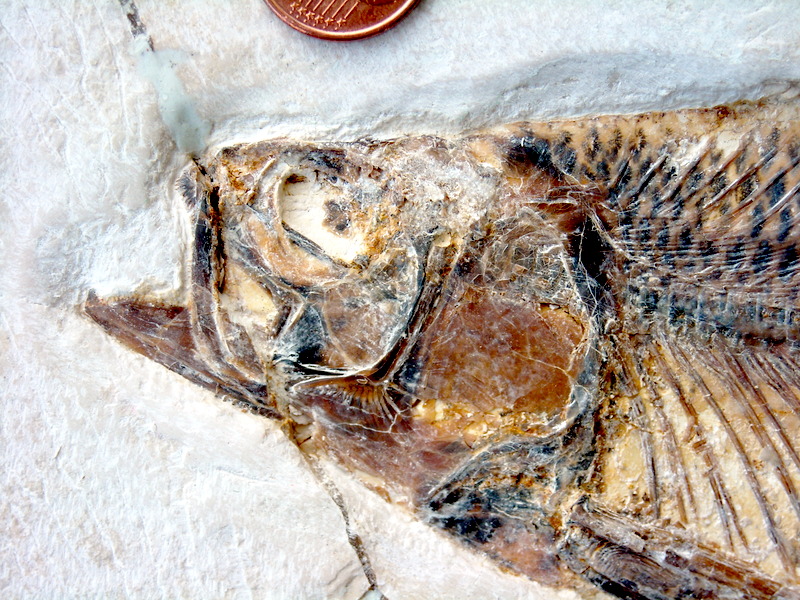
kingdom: Animalia
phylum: Chordata
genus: Thrissops
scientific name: Thrissops formosus
